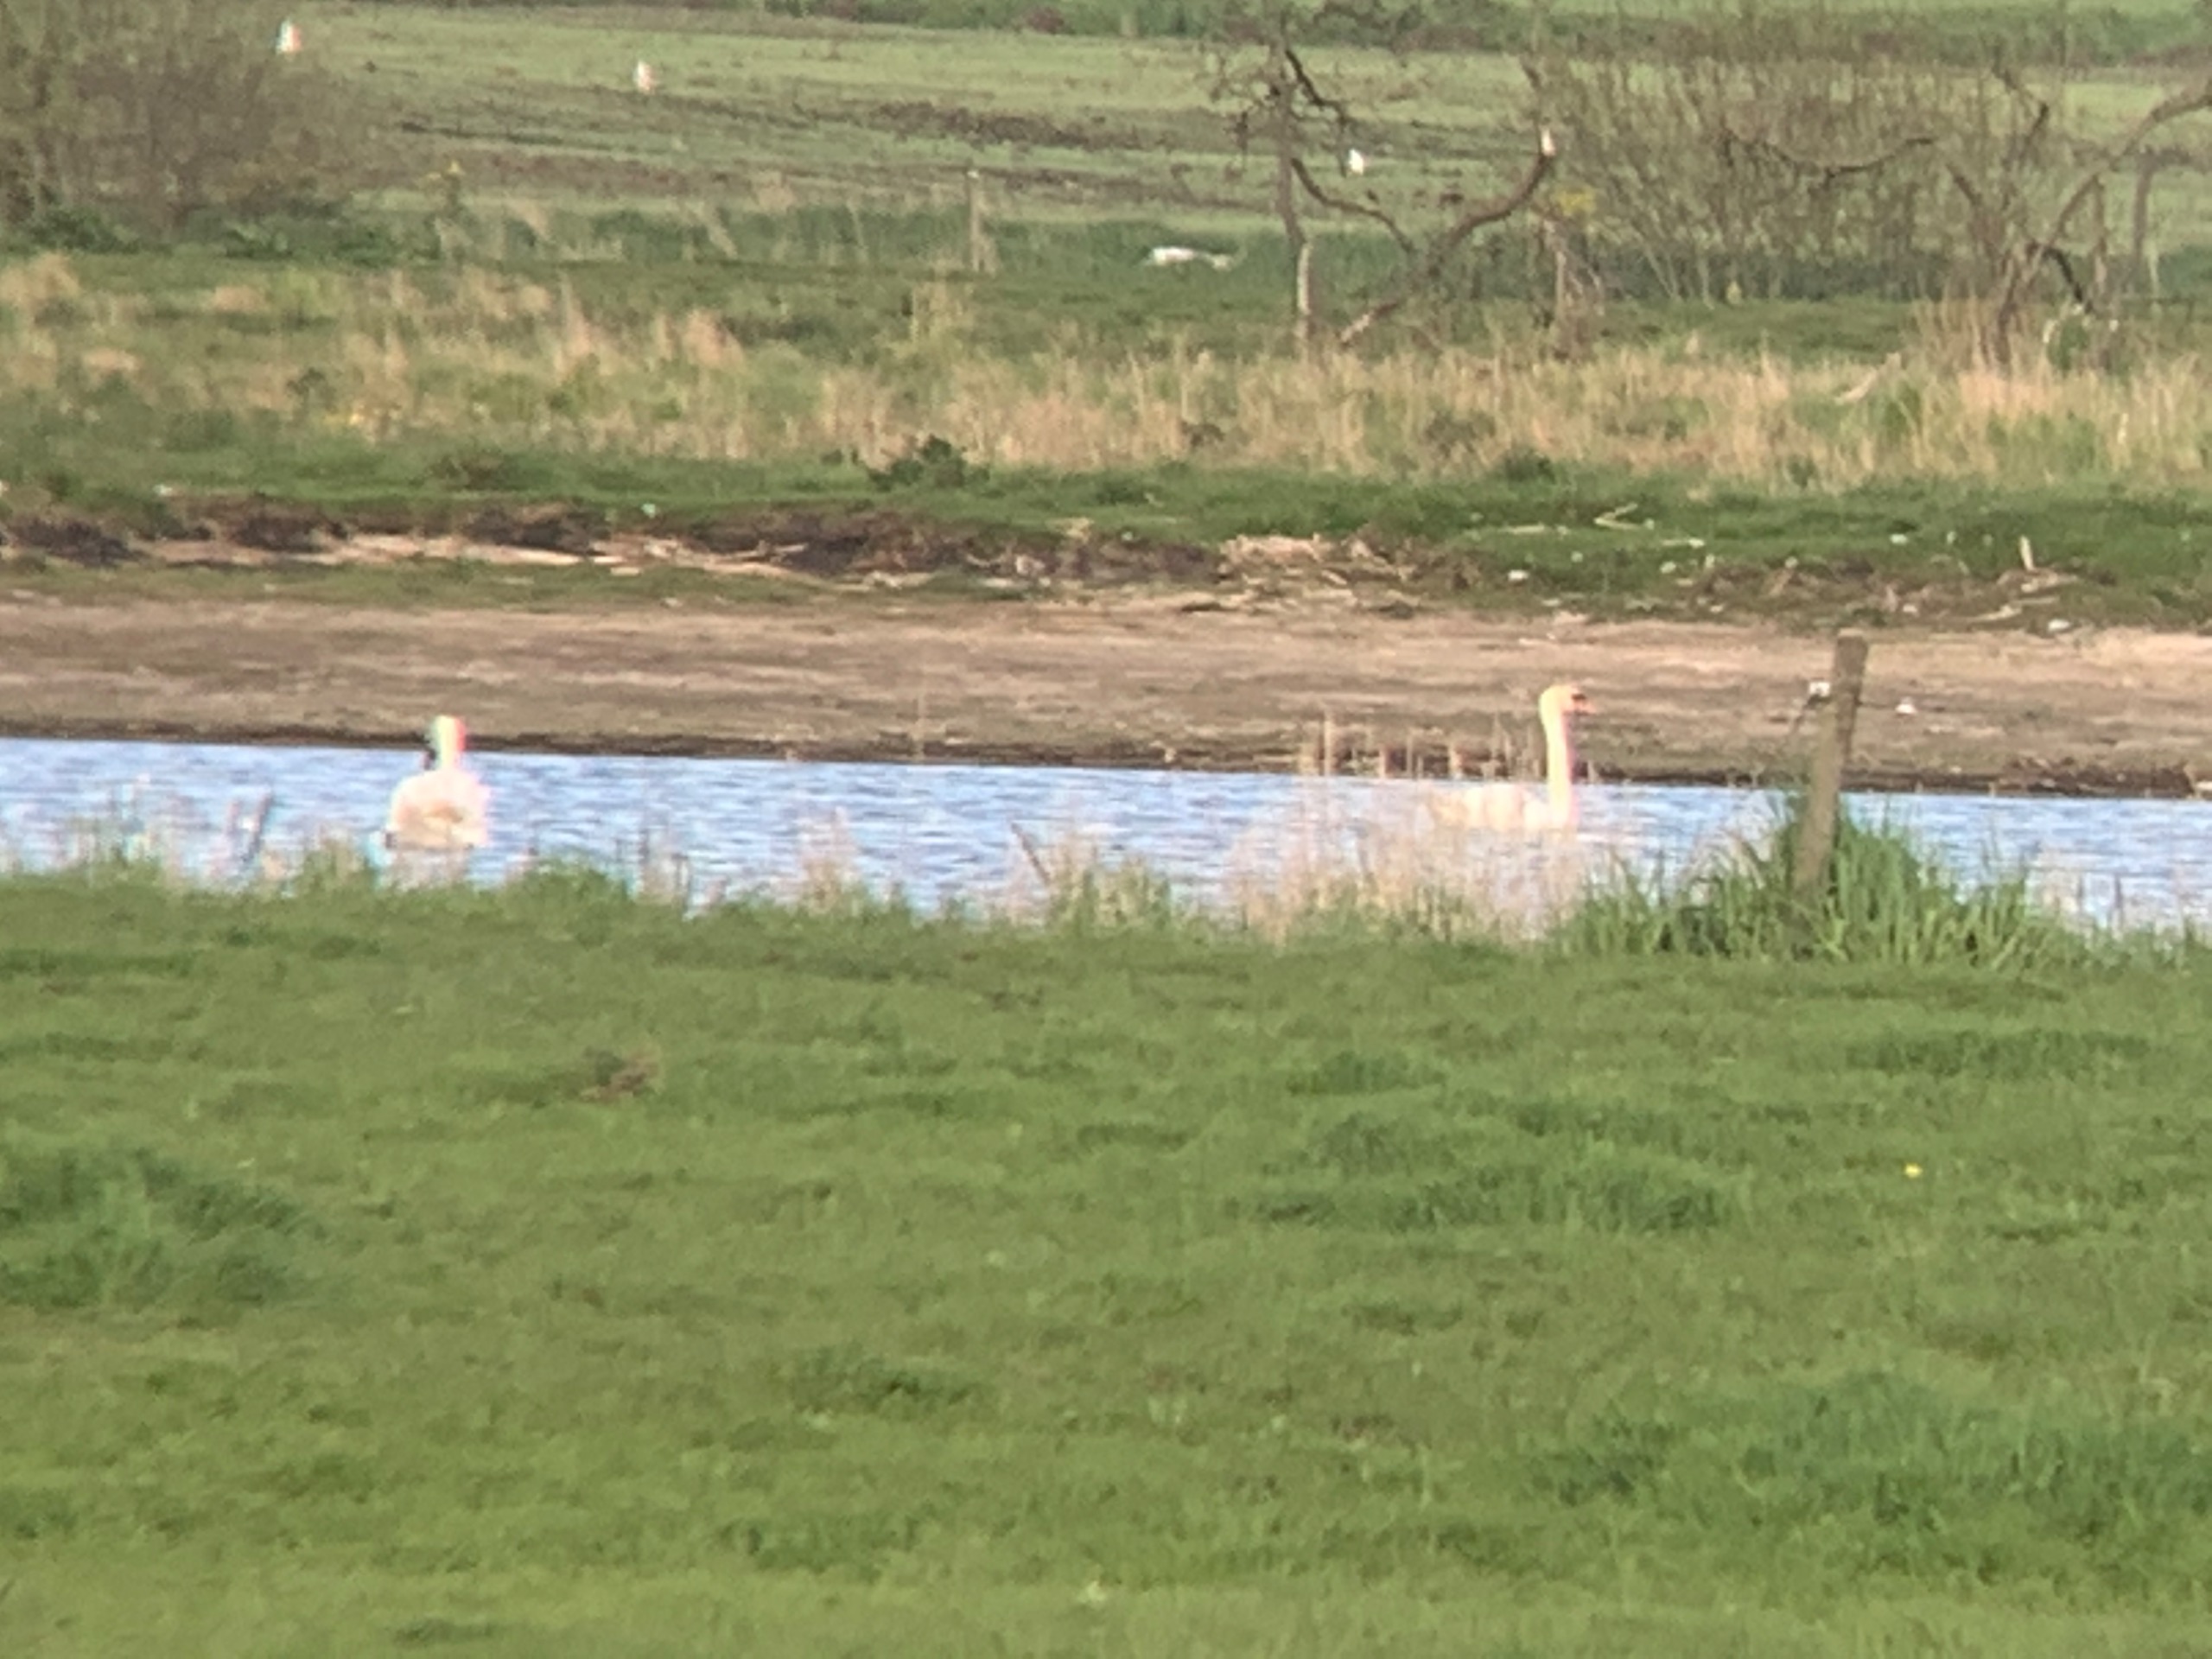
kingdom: Animalia
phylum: Chordata
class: Aves
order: Anseriformes
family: Anatidae
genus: Cygnus
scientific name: Cygnus olor
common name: Knopsvane
